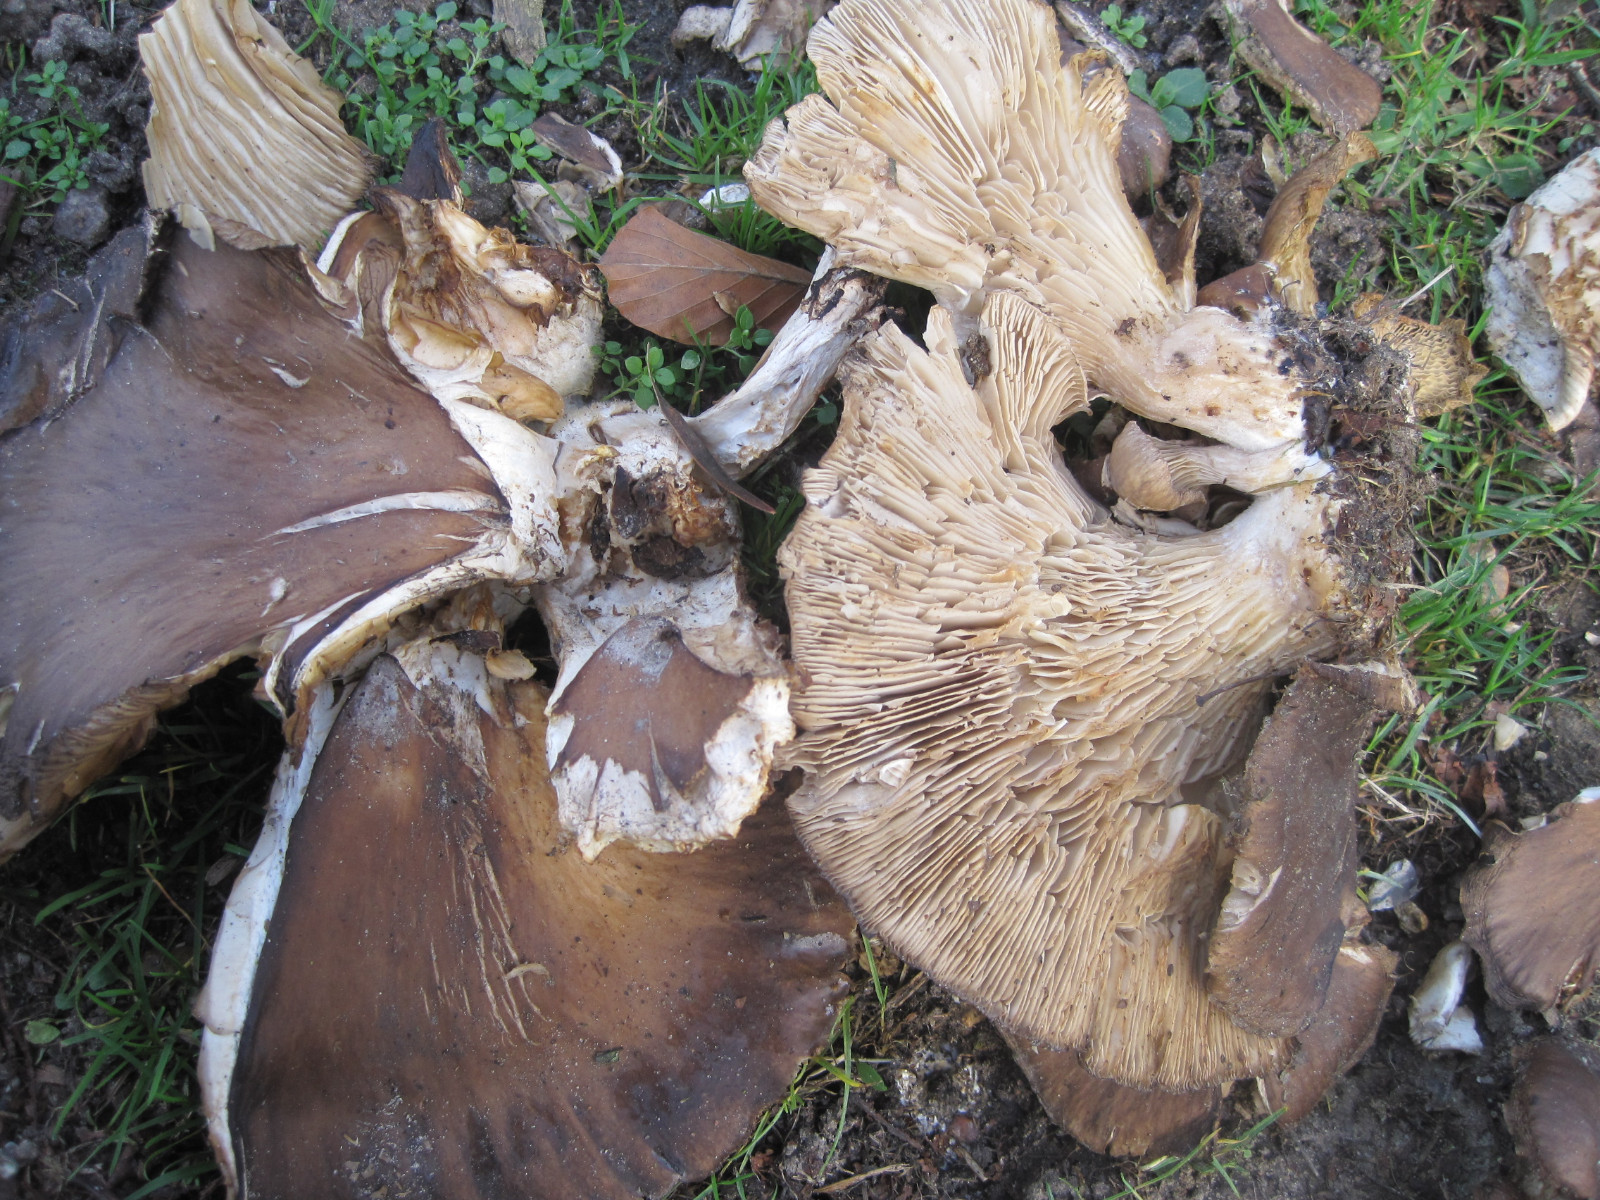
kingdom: Fungi
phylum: Basidiomycota
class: Agaricomycetes
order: Agaricales
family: Pleurotaceae
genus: Pleurotus
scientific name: Pleurotus ostreatus
